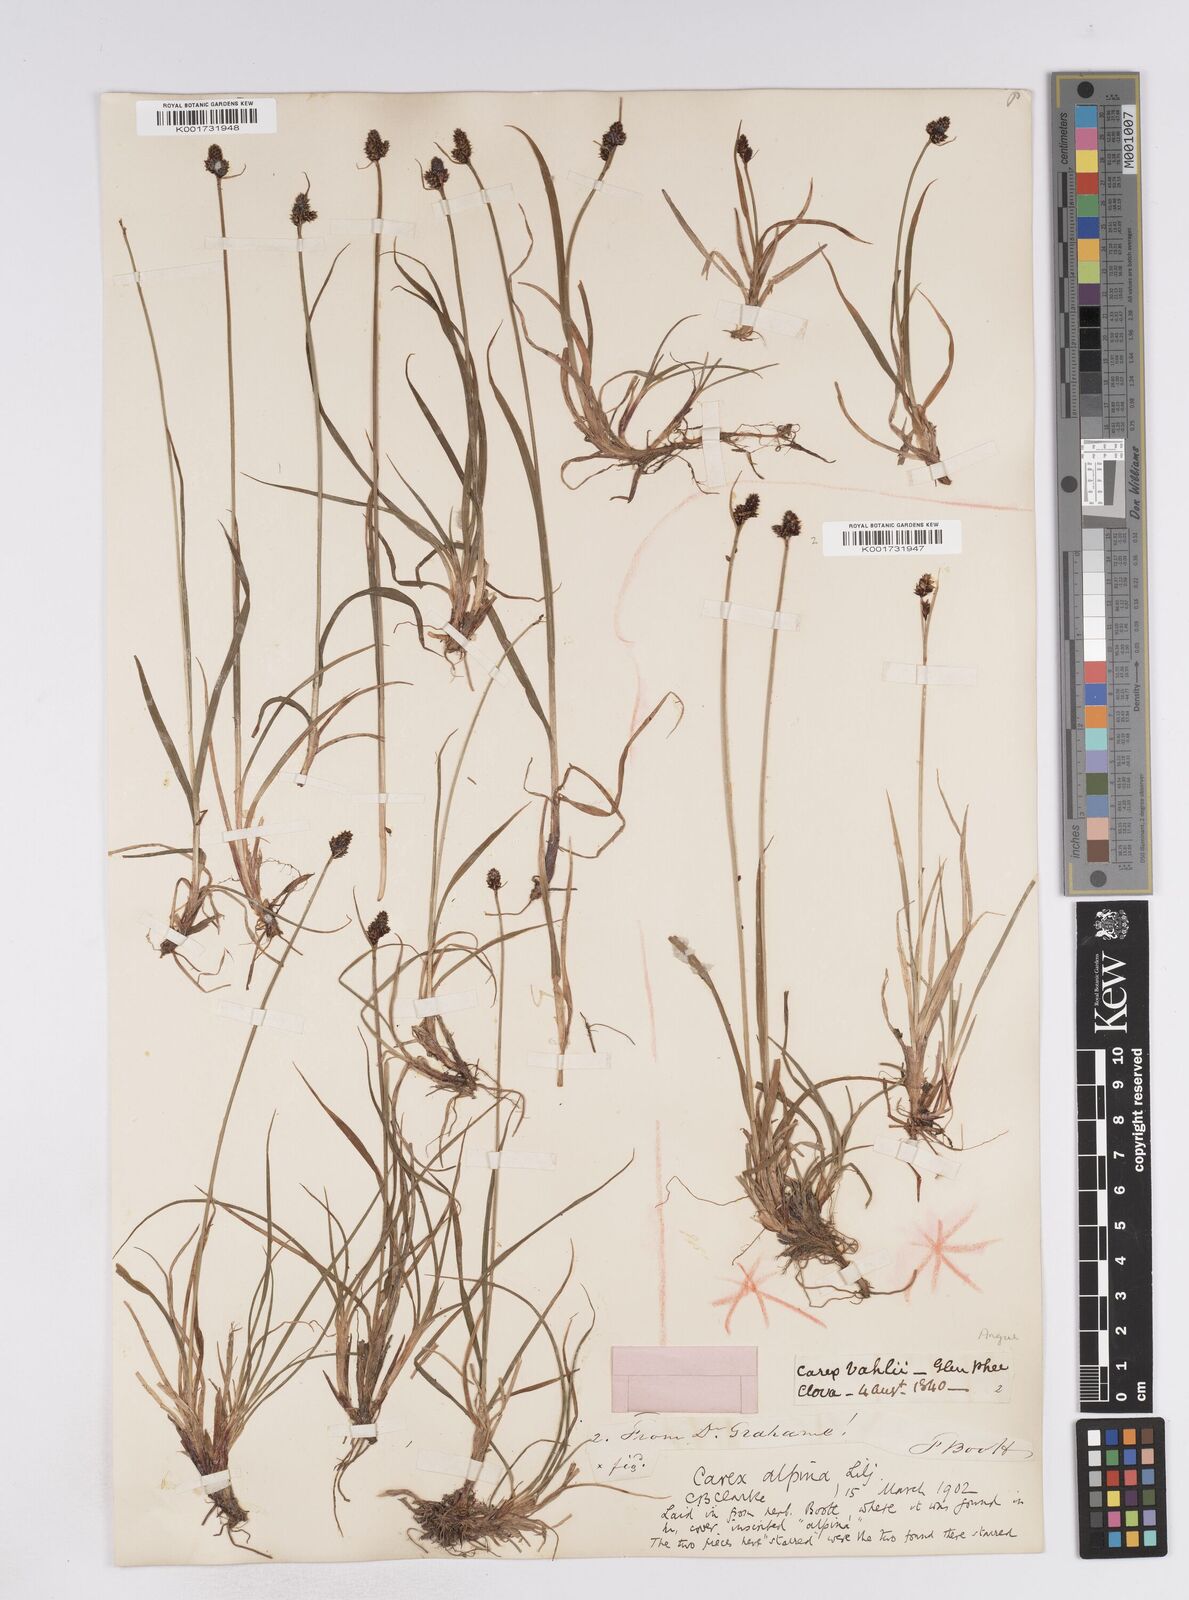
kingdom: Plantae
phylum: Tracheophyta
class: Liliopsida
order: Poales
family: Cyperaceae
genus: Carex
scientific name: Carex norvegica
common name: Close-headed alpine-sedge
